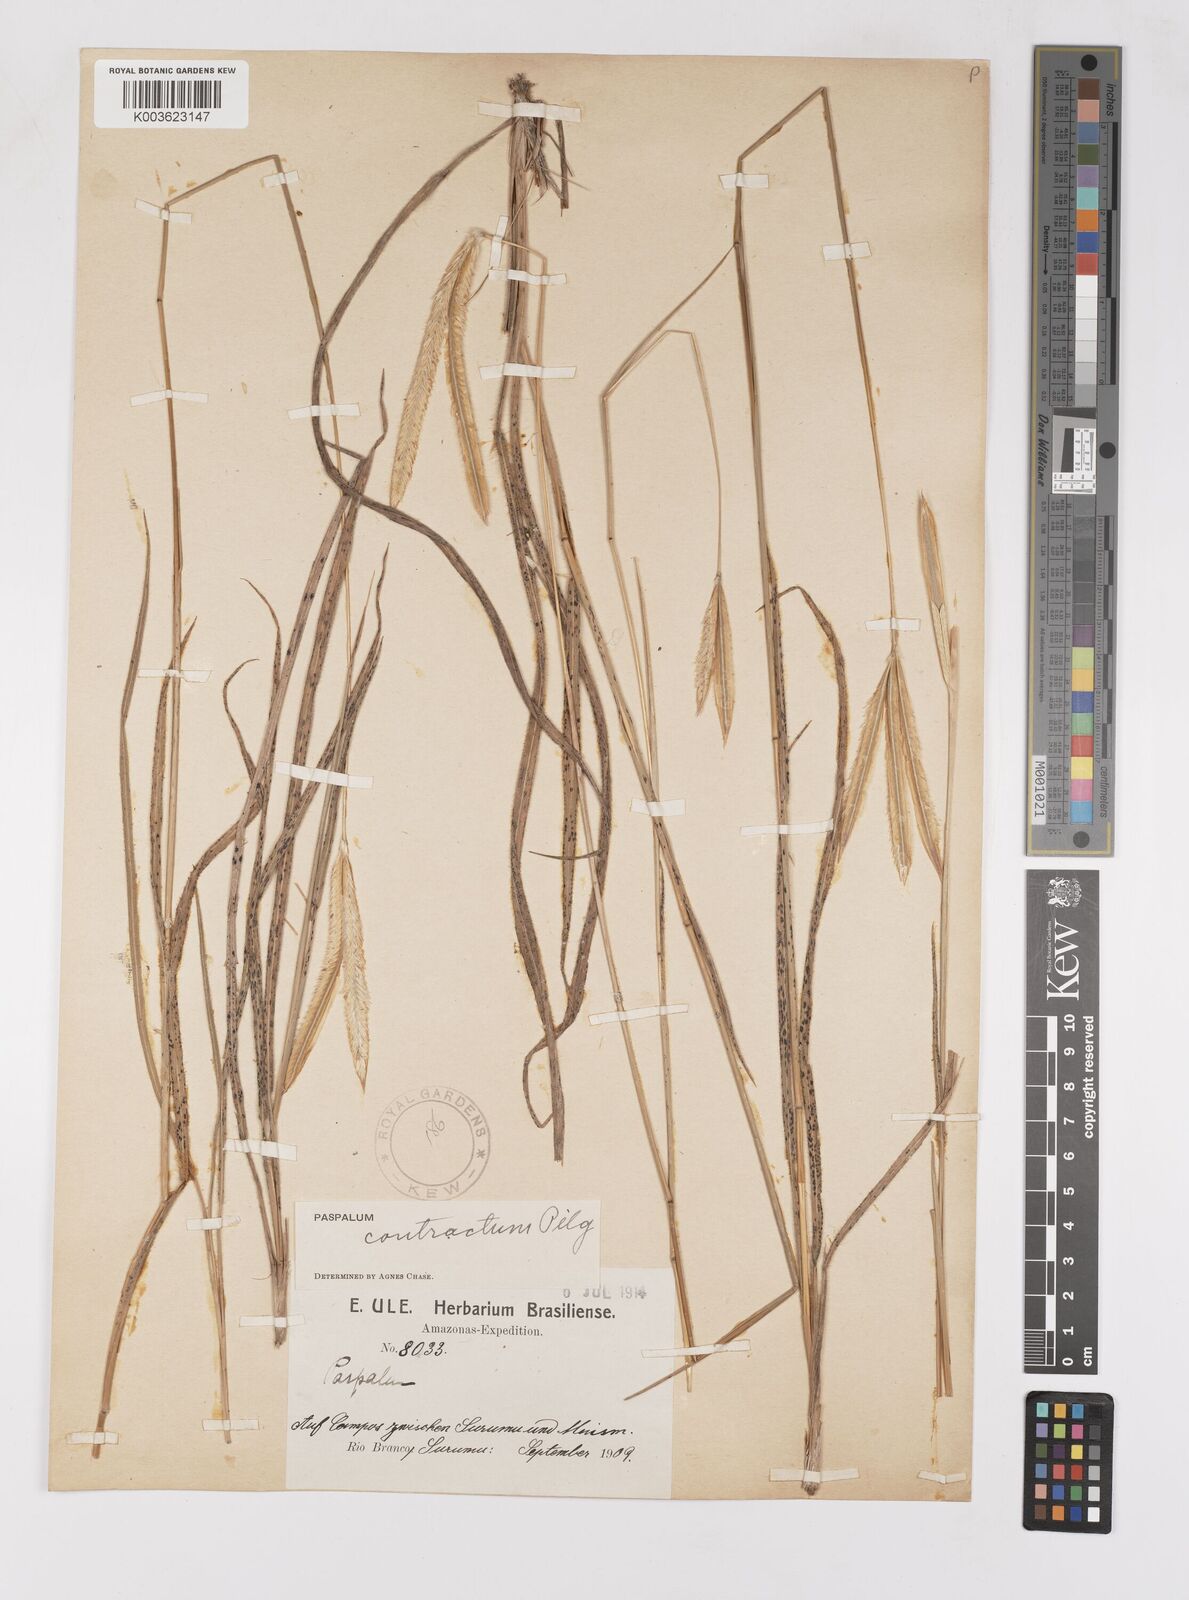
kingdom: Plantae
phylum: Tracheophyta
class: Liliopsida
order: Poales
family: Poaceae
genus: Paspalum
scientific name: Paspalum lanciflorum
